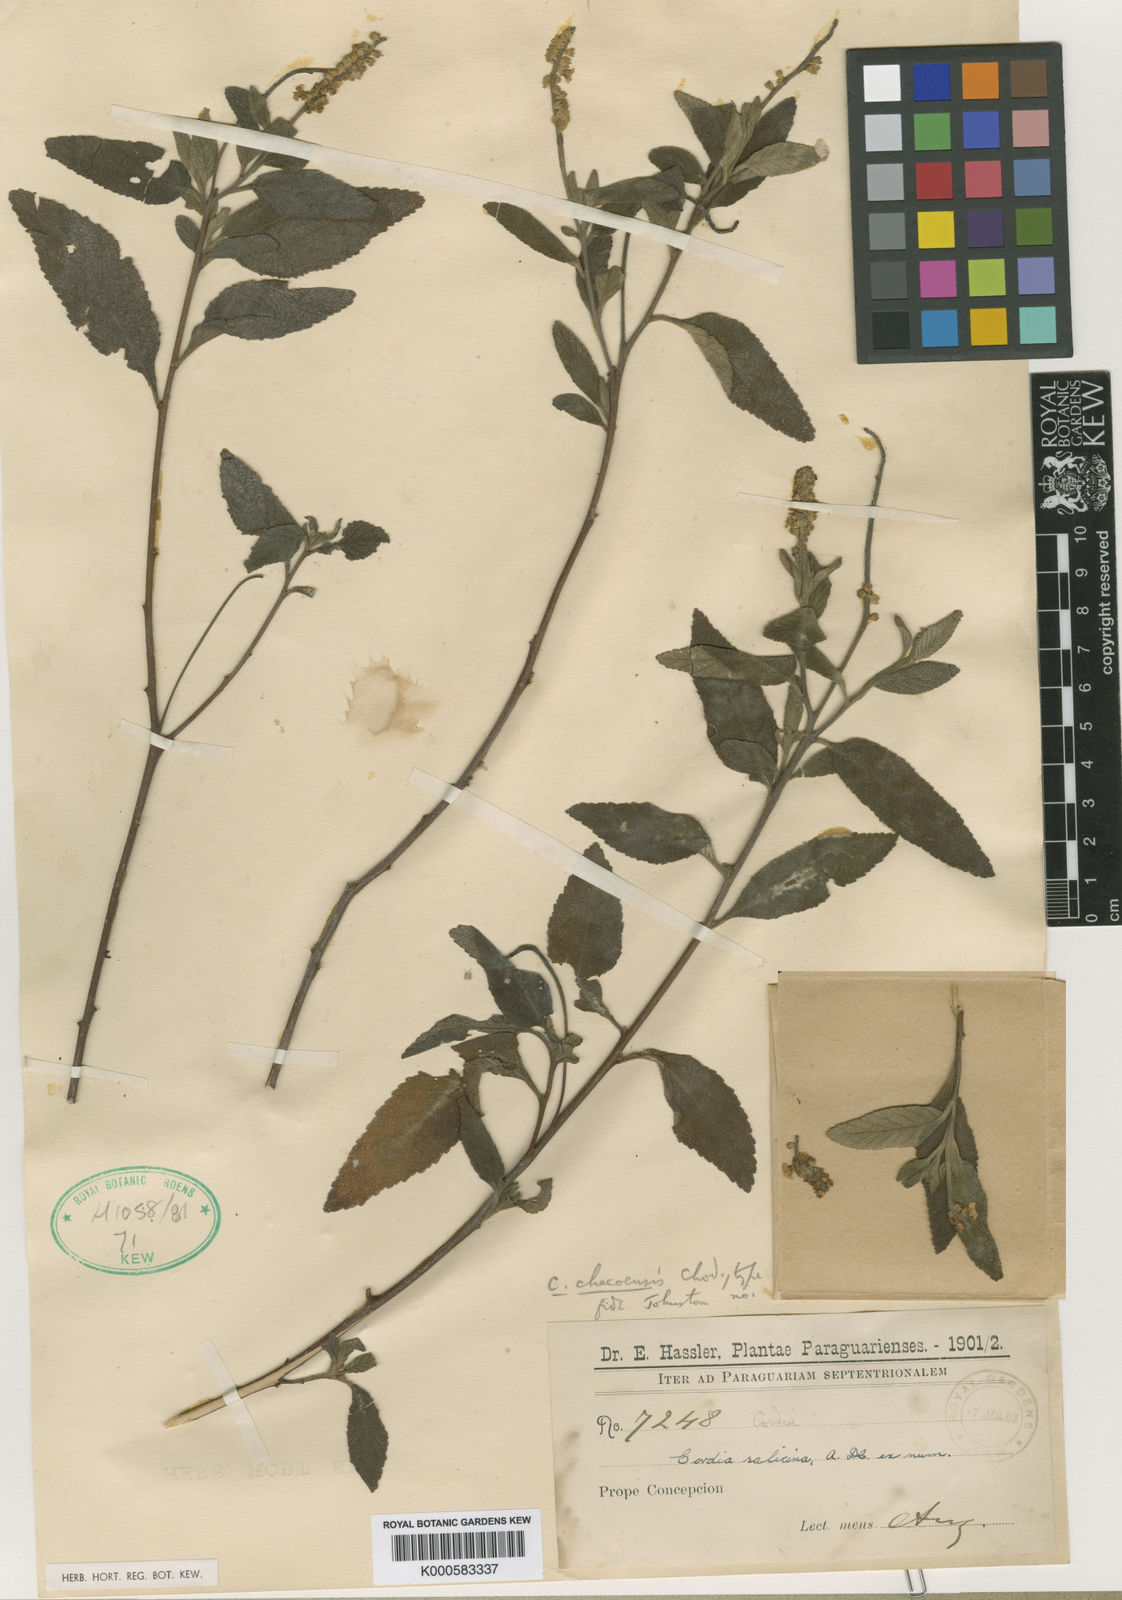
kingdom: Plantae
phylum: Tracheophyta
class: Magnoliopsida
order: Boraginales
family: Cordiaceae
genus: Varronia
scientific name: Varronia curassavica
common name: Black sage
